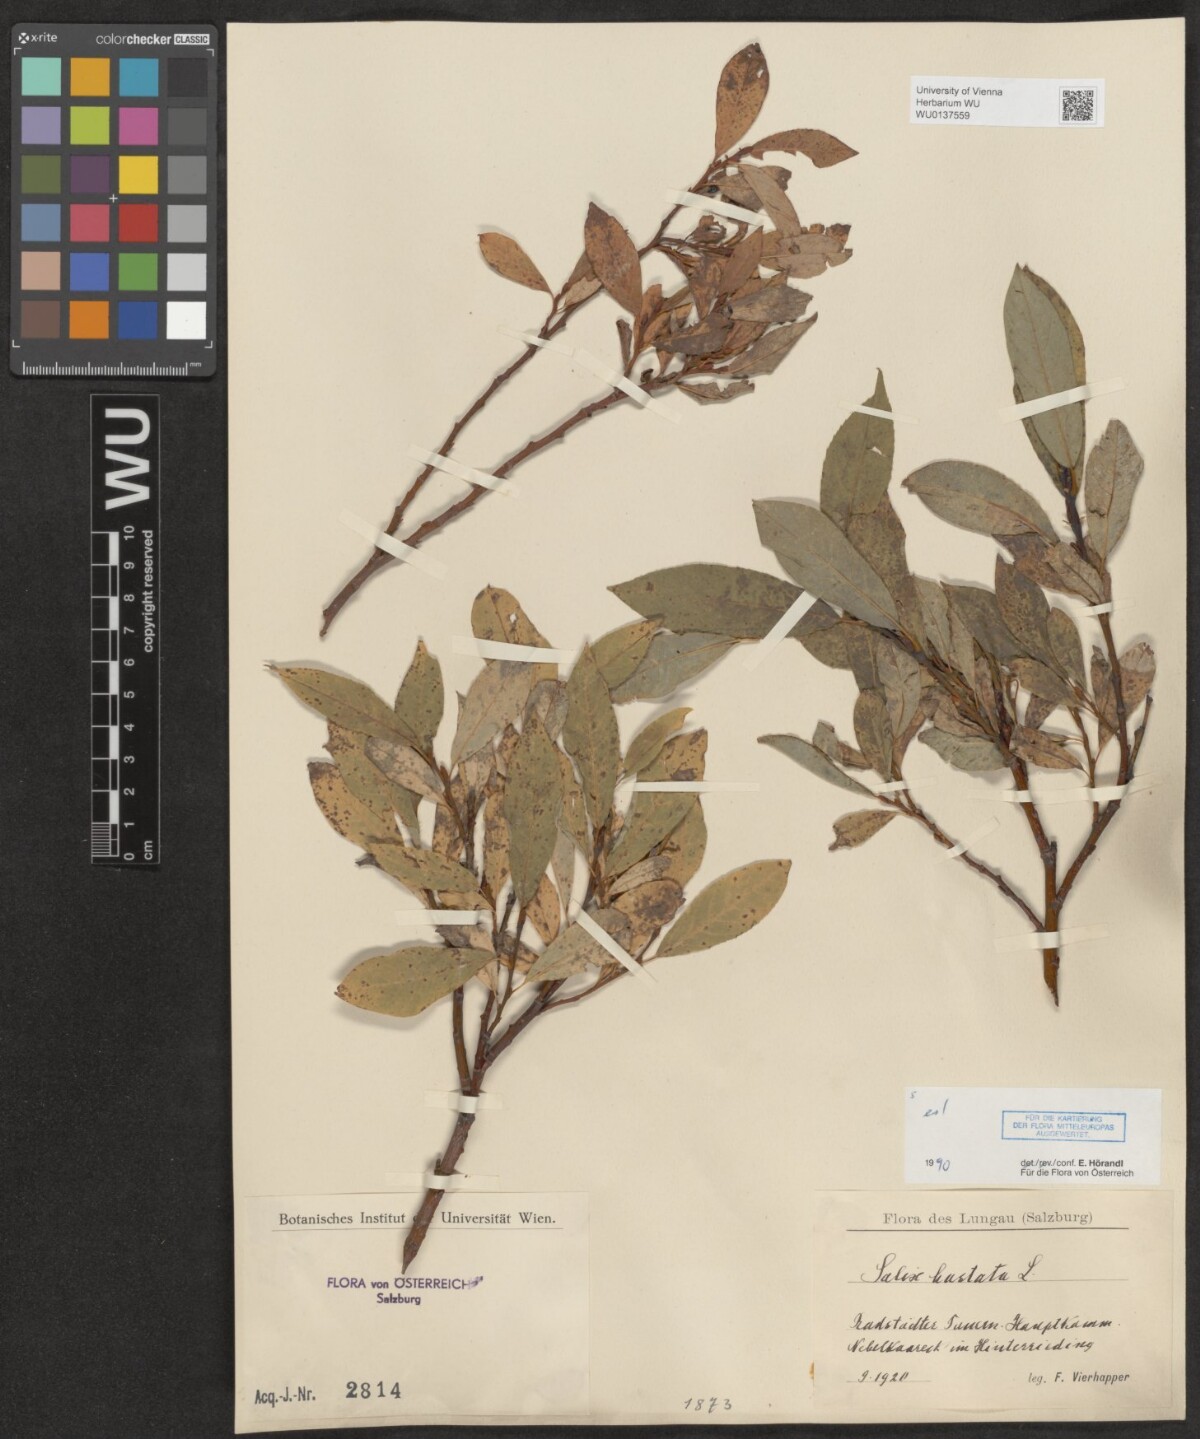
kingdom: Plantae
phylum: Tracheophyta
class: Magnoliopsida
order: Malpighiales
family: Salicaceae
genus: Salix
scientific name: Salix hastata
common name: Halberd willow
